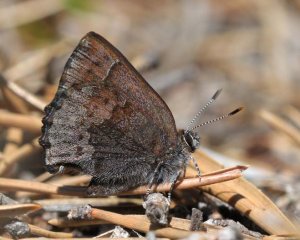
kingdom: Animalia
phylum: Arthropoda
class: Insecta
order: Lepidoptera
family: Lycaenidae
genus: Callophrys
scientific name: Callophrys polios
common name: Hoary Elfin
